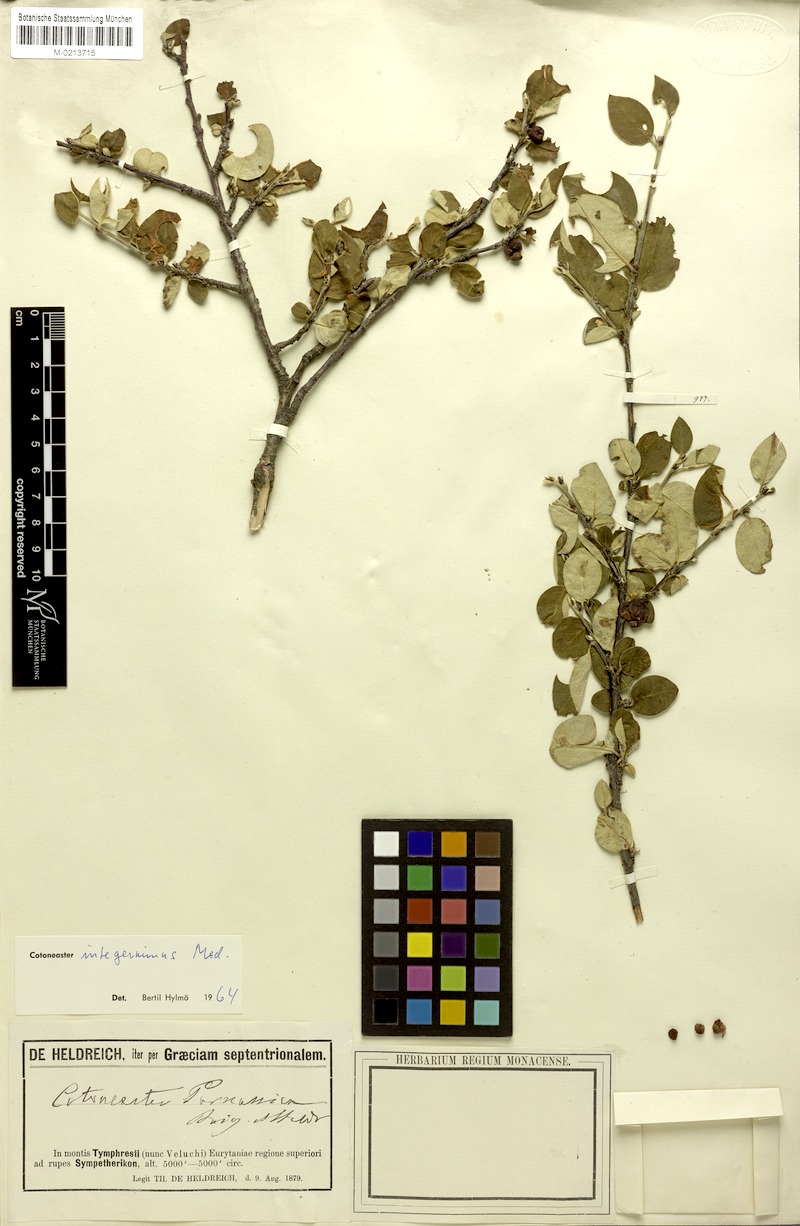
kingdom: Plantae
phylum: Tracheophyta
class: Magnoliopsida
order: Rosales
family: Rosaceae
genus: Cotoneaster
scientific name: Cotoneaster parnassicus
